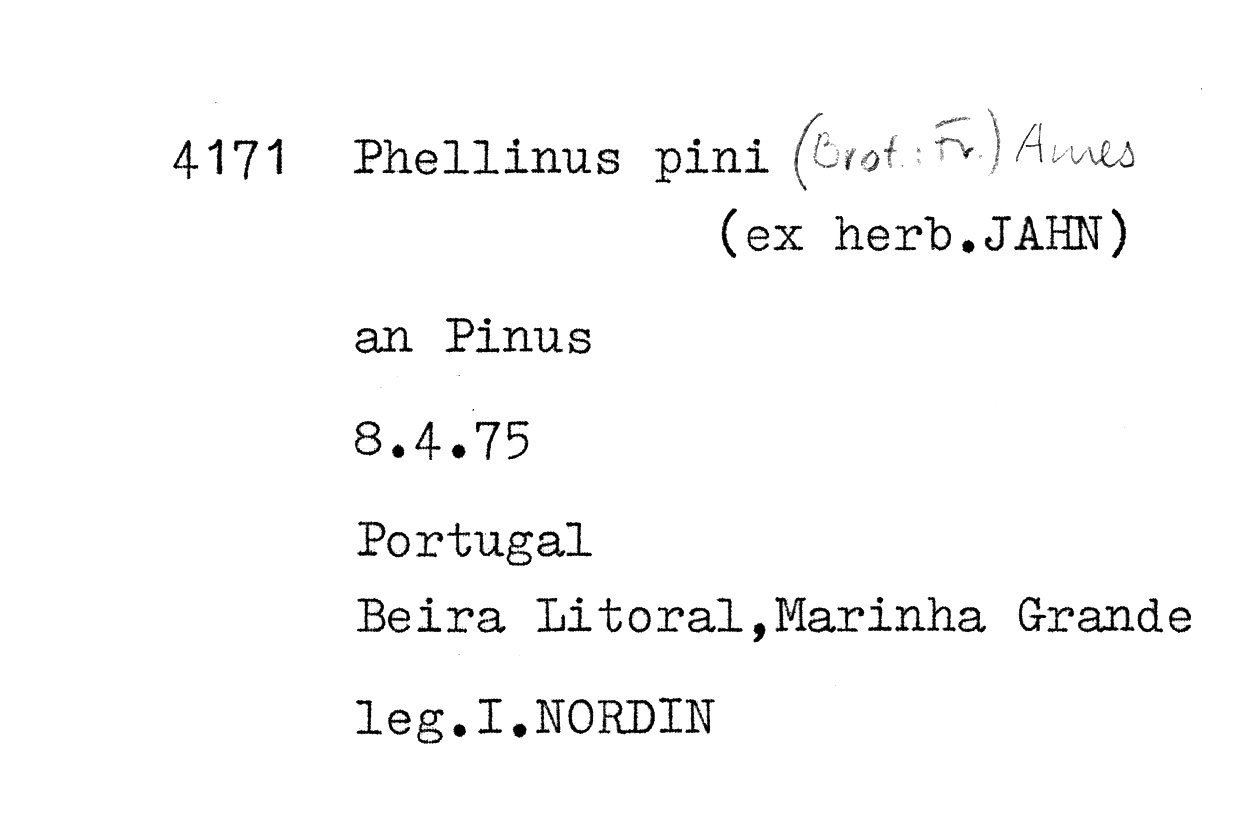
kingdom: Plantae
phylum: Tracheophyta
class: Pinopsida
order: Pinales
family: Pinaceae
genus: Pinus
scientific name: Pinus
